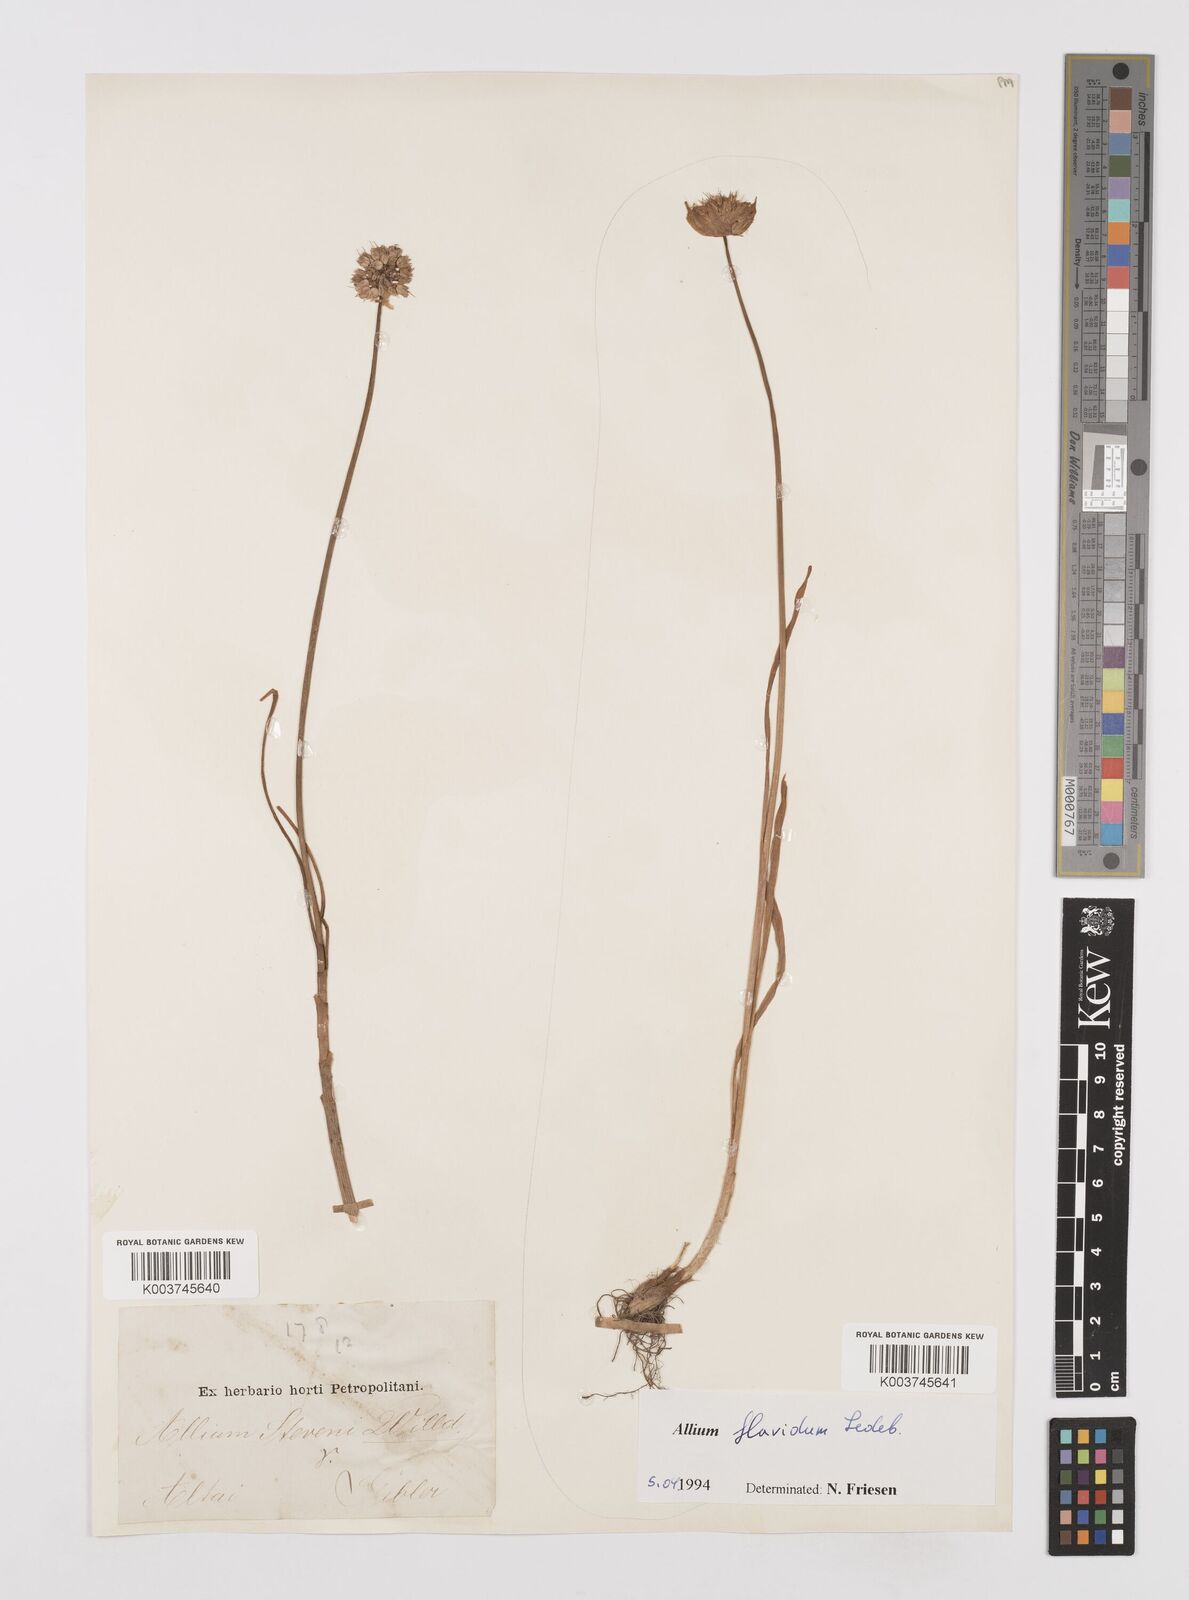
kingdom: Plantae
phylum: Tracheophyta
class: Liliopsida
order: Asparagales
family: Amaryllidaceae
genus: Allium
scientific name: Allium textile
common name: Prairie onion
